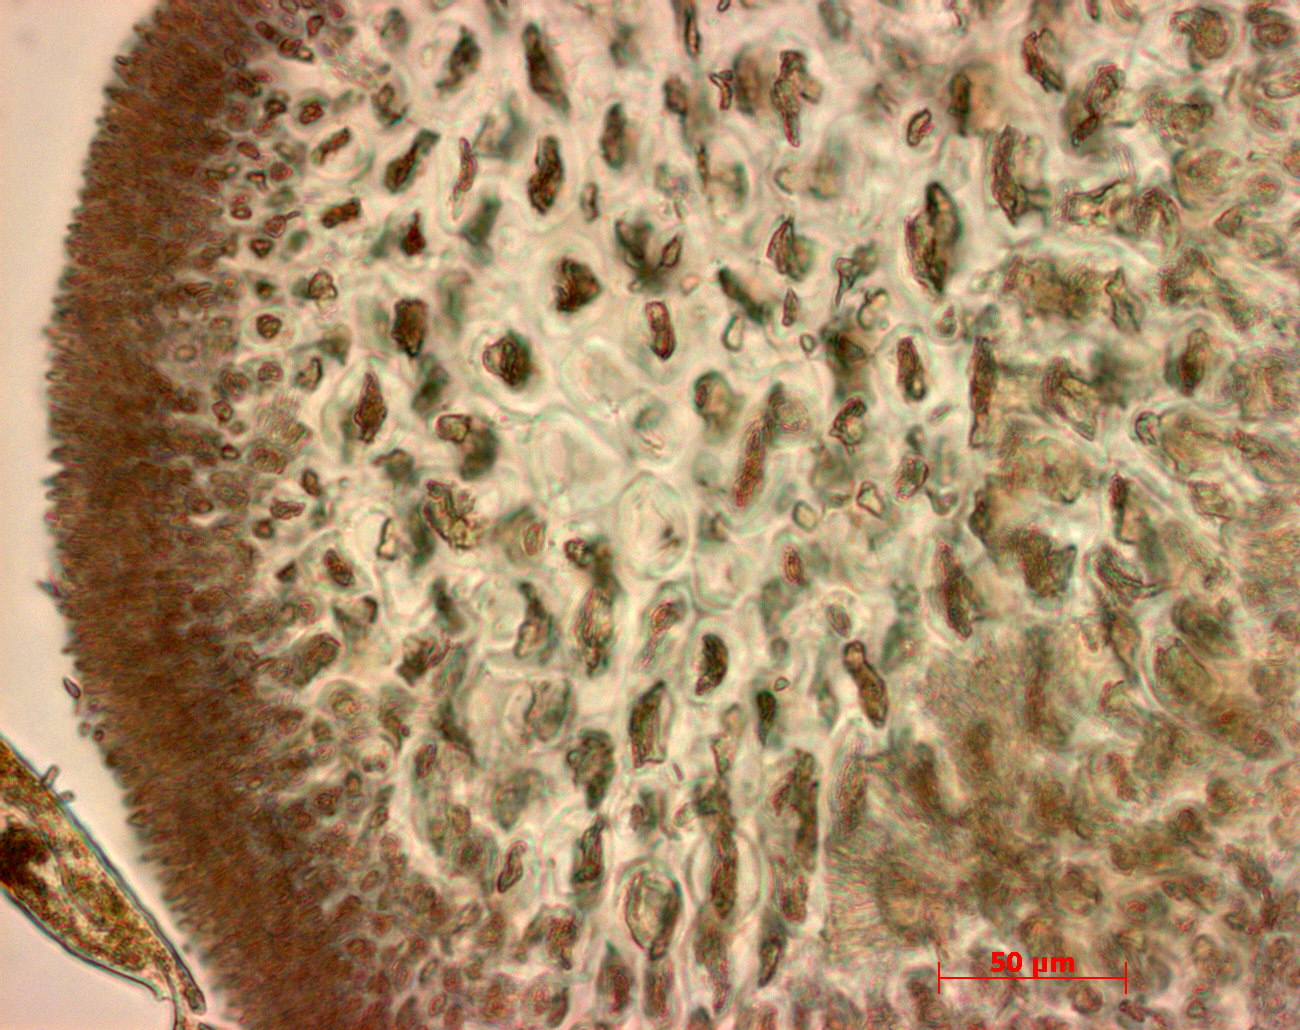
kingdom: Plantae
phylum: Rhodophyta
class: Florideophyceae
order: Gigartinales
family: Phyllophoraceae
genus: Gymnogongrus
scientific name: Gymnogongrus torulosus
